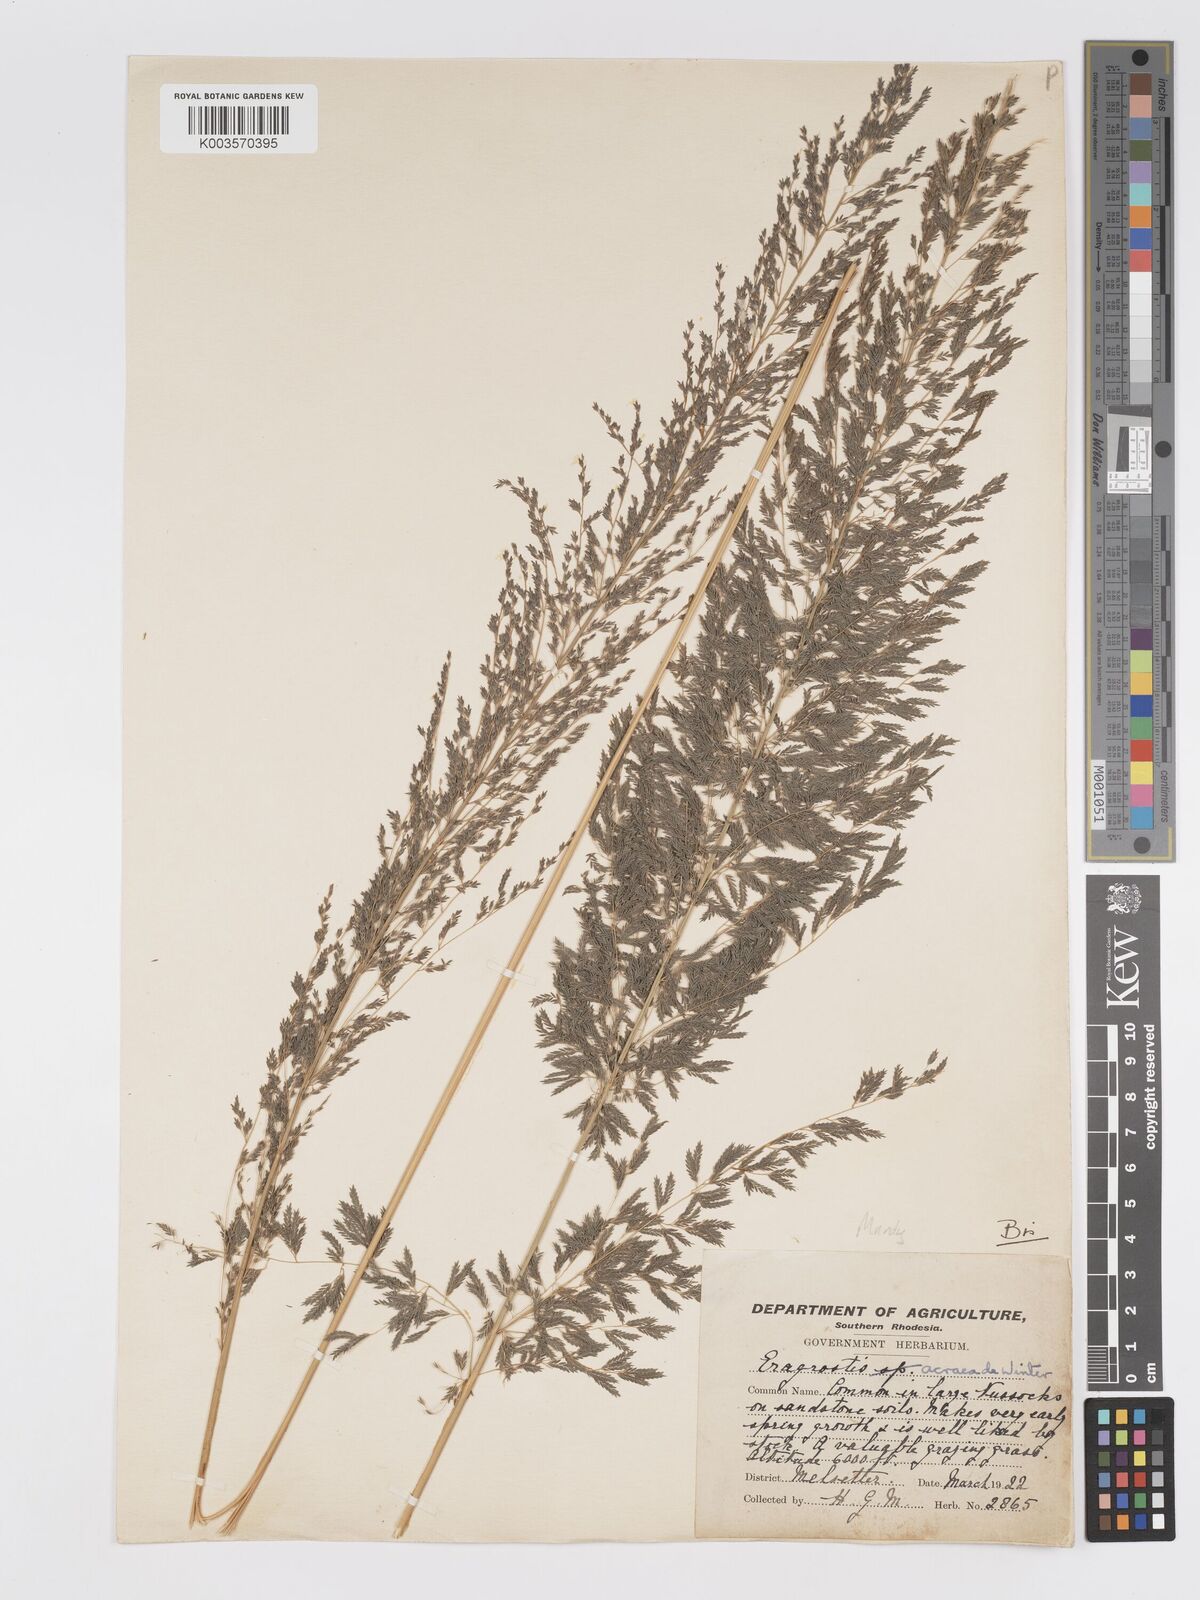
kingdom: Plantae
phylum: Tracheophyta
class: Liliopsida
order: Poales
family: Poaceae
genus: Eragrostis
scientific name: Eragrostis acraea
